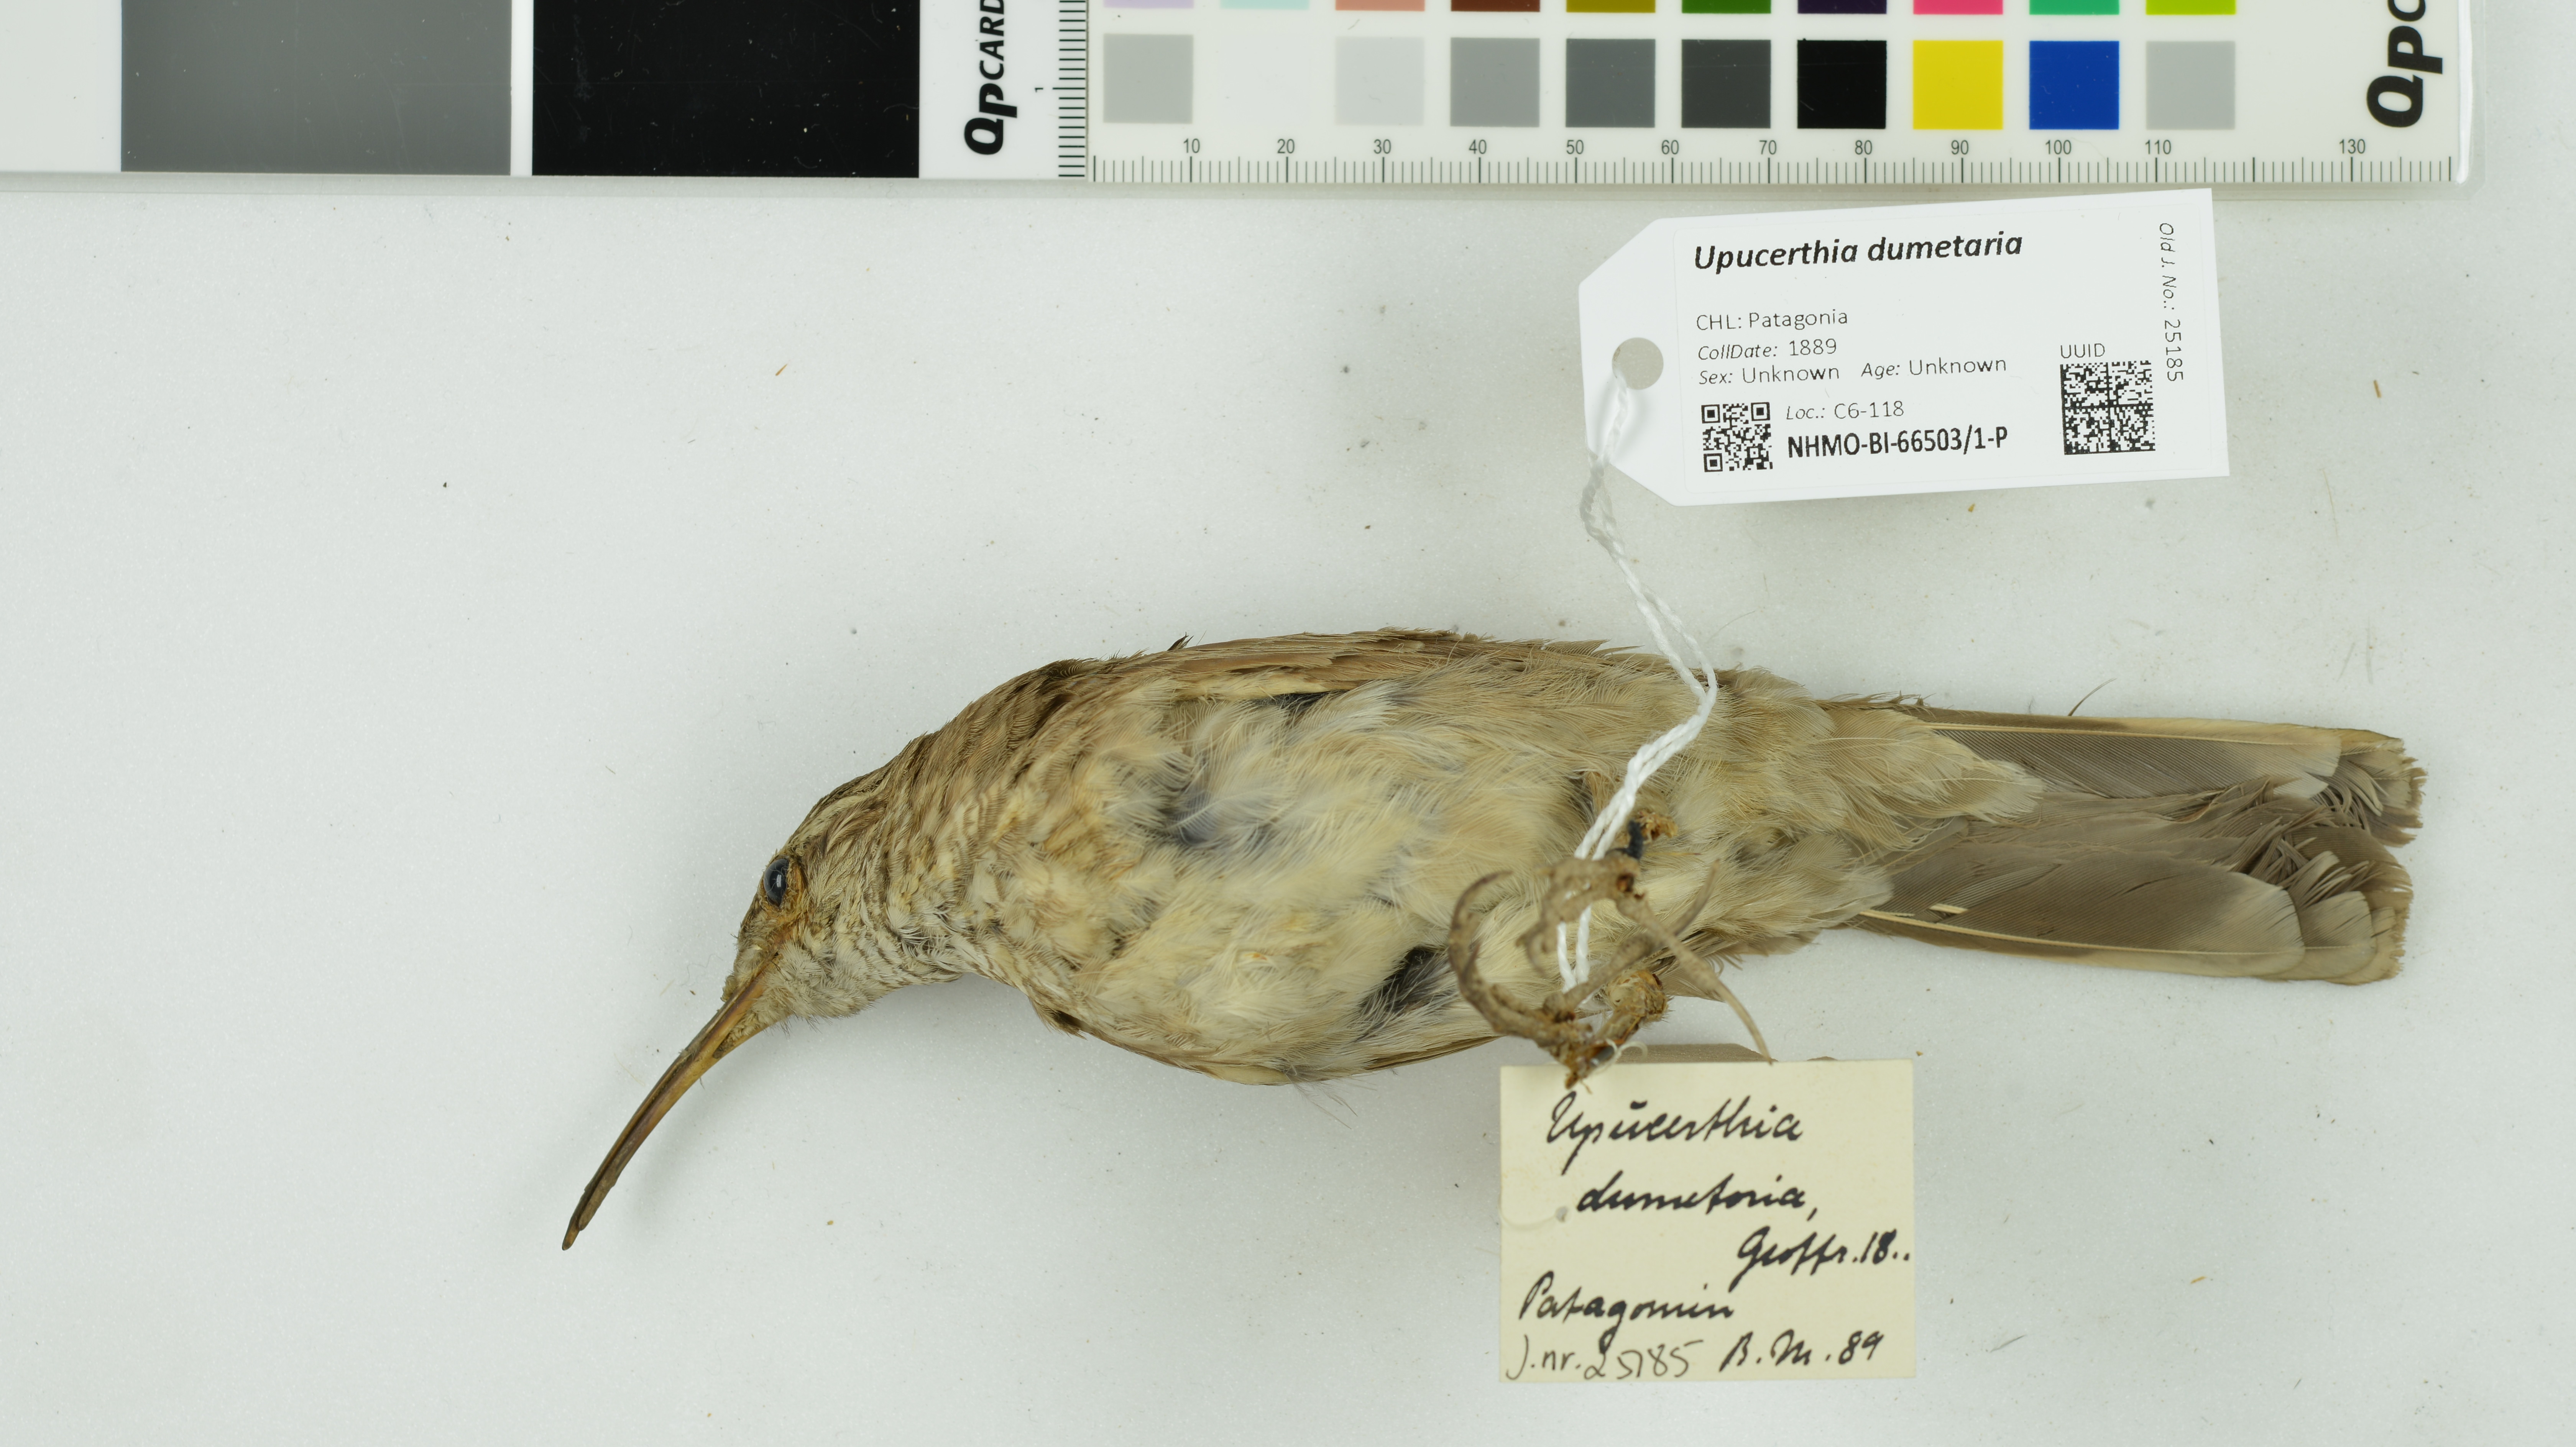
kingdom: Animalia
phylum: Chordata
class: Aves
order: Passeriformes
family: Furnariidae
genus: Upucerthia
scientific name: Upucerthia dumetaria
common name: Scale-throated earthcreeper
